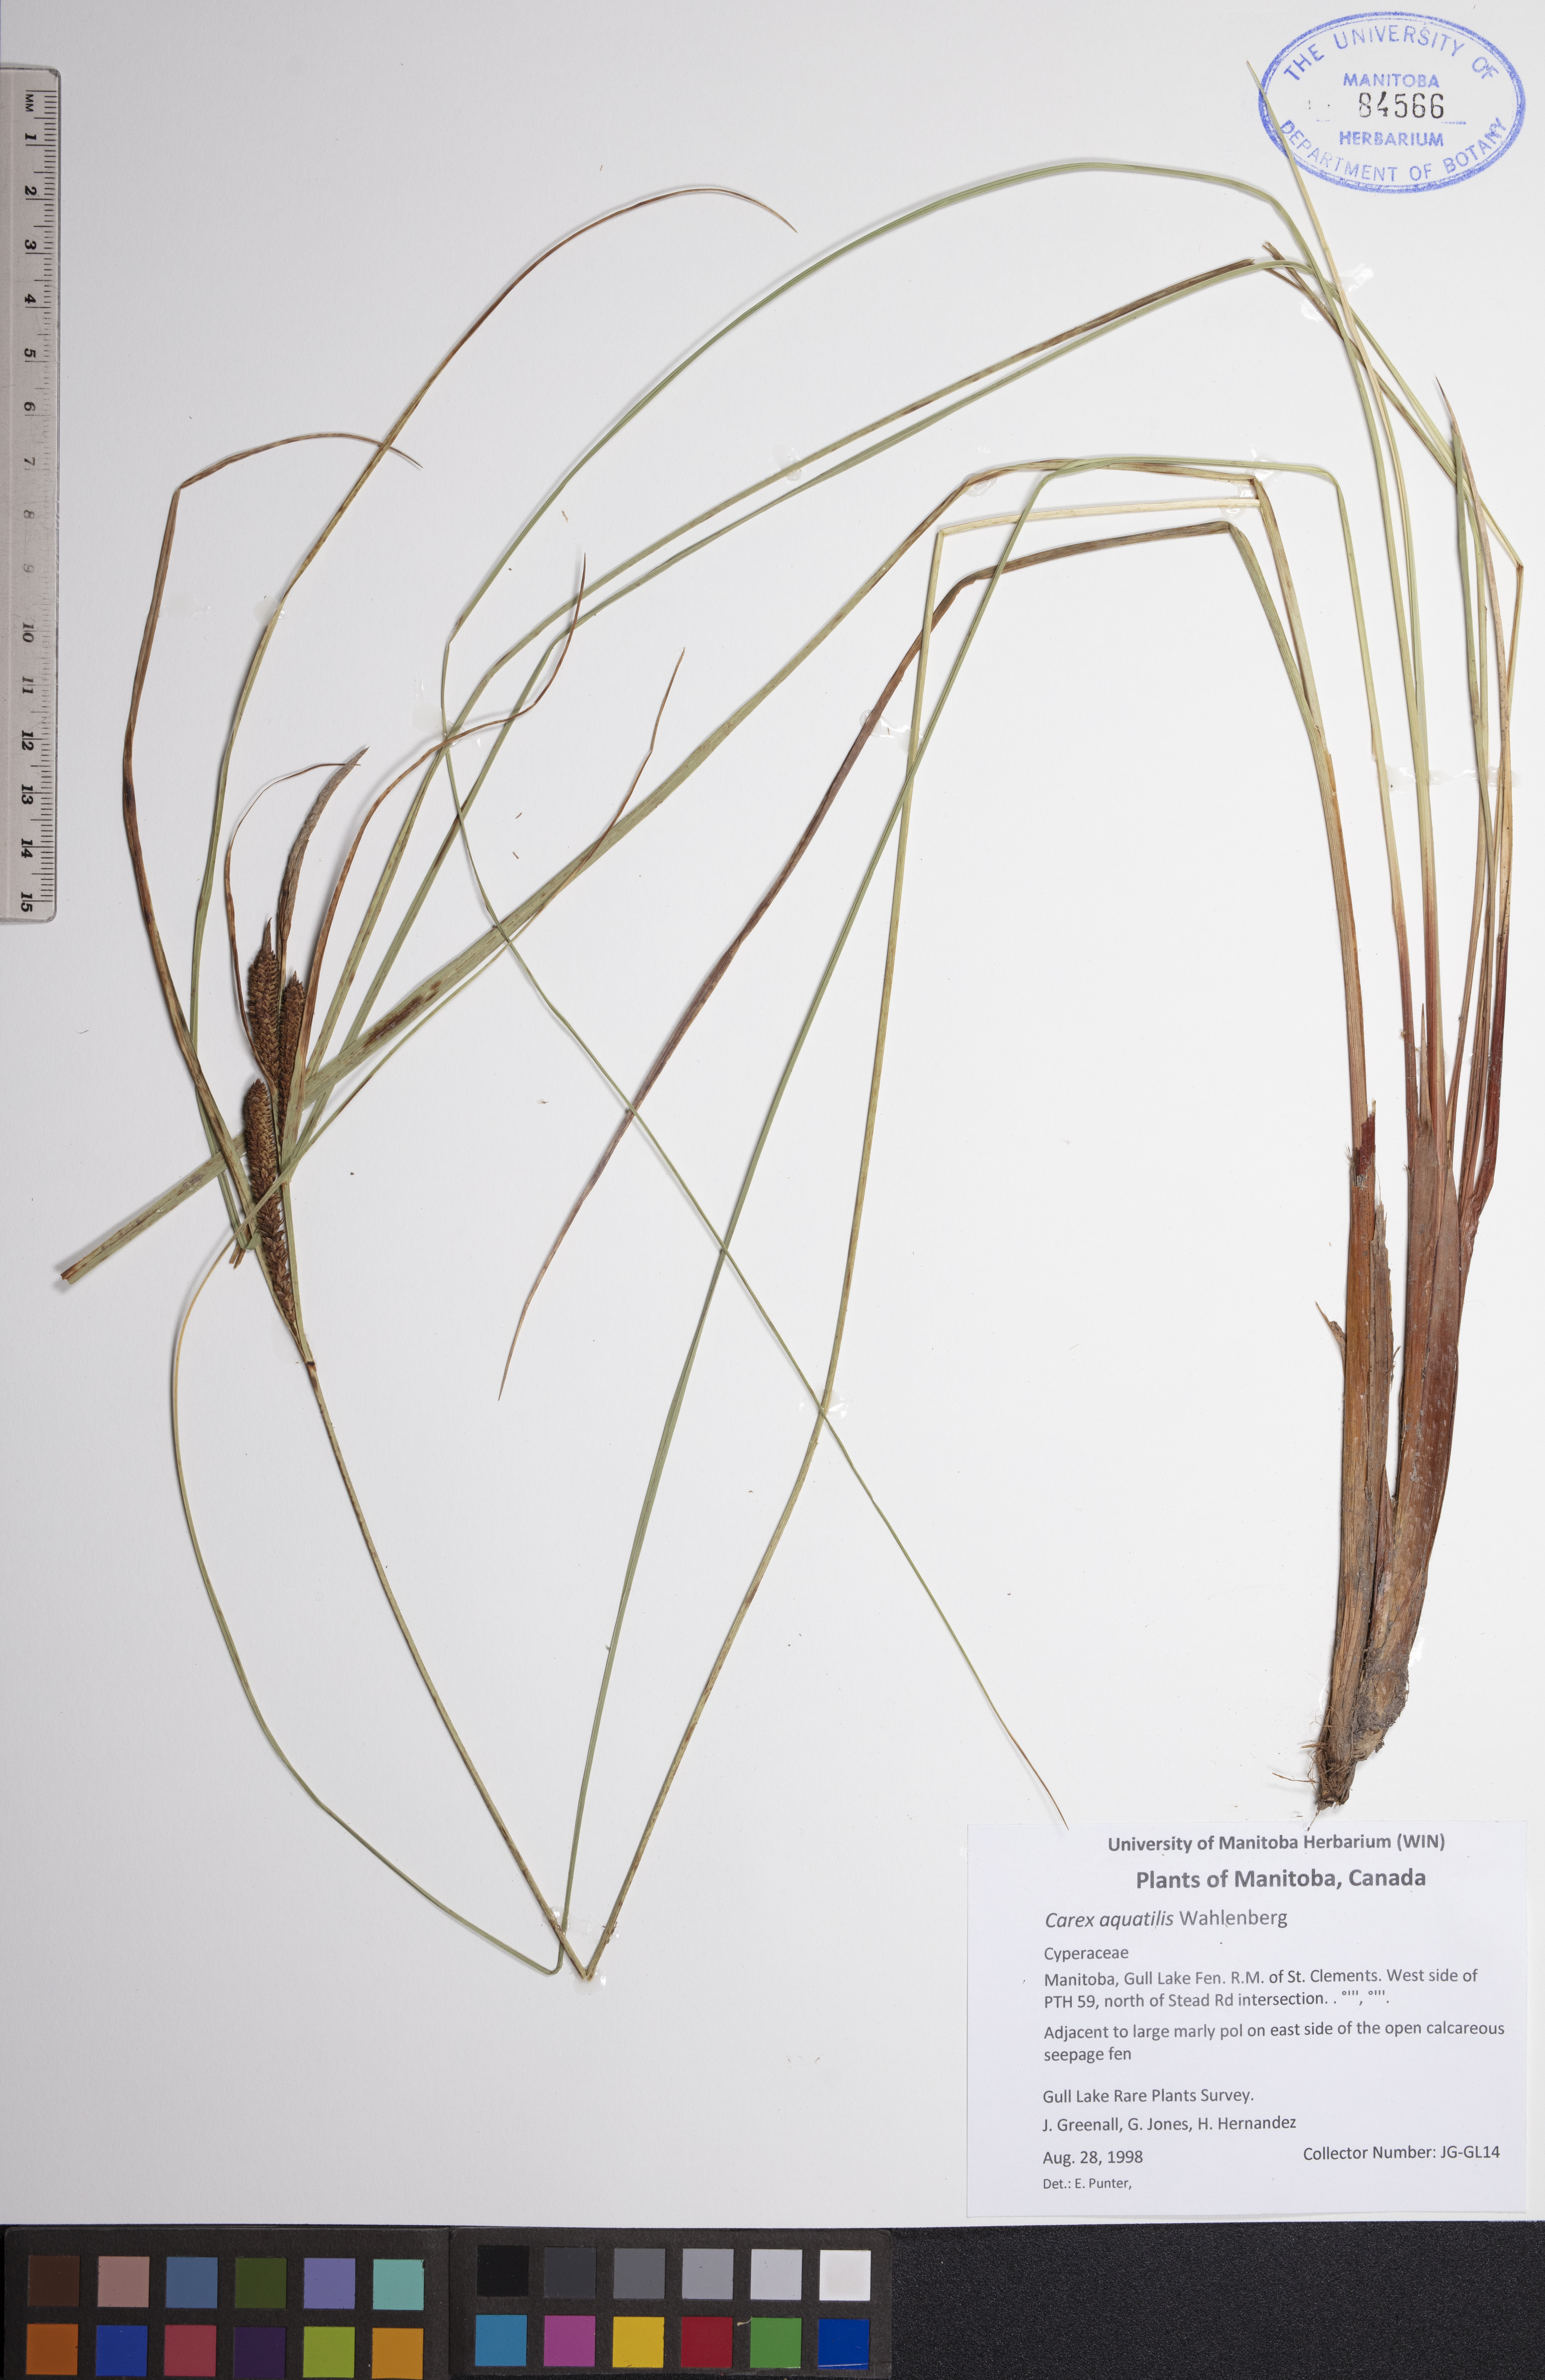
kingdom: Plantae
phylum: Tracheophyta
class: Liliopsida
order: Poales
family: Cyperaceae
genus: Carex
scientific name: Carex aquatilis
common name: Water sedge
